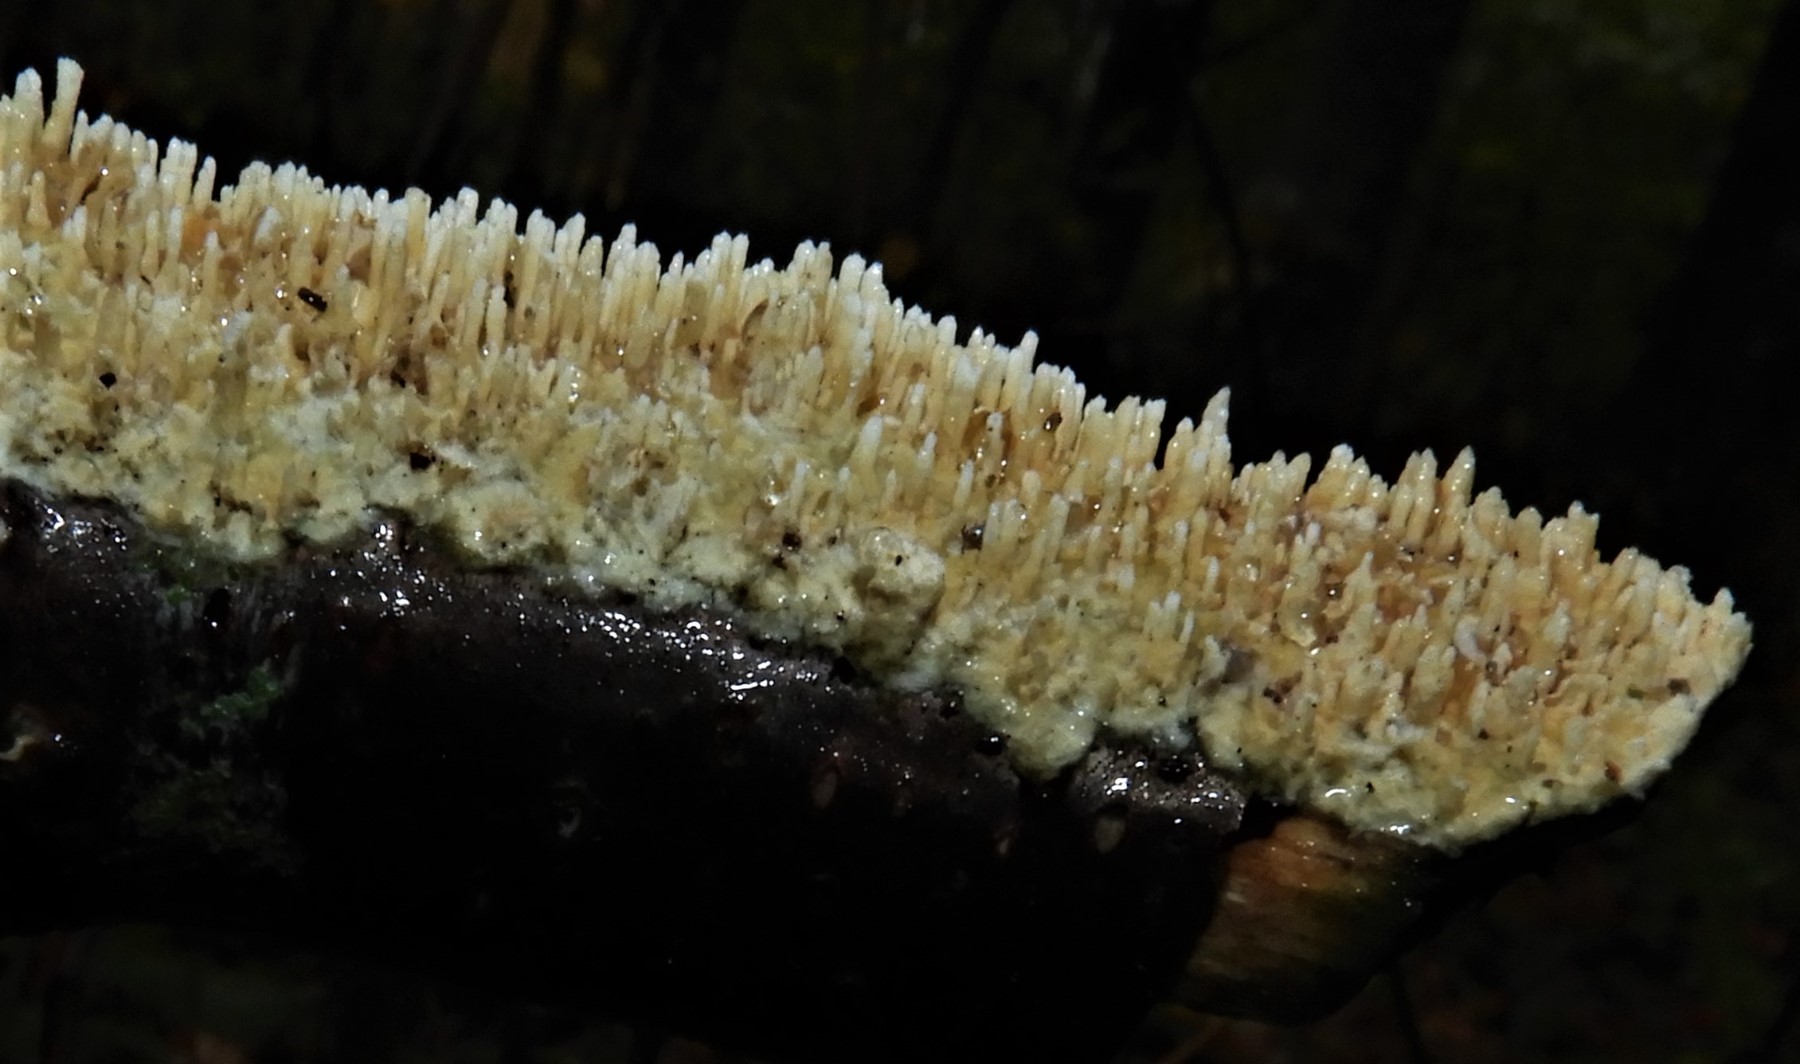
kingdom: Fungi
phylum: Basidiomycota
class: Agaricomycetes
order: Hymenochaetales
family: Schizoporaceae
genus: Xylodon
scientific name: Xylodon radula
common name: grovtandet kalkskind
